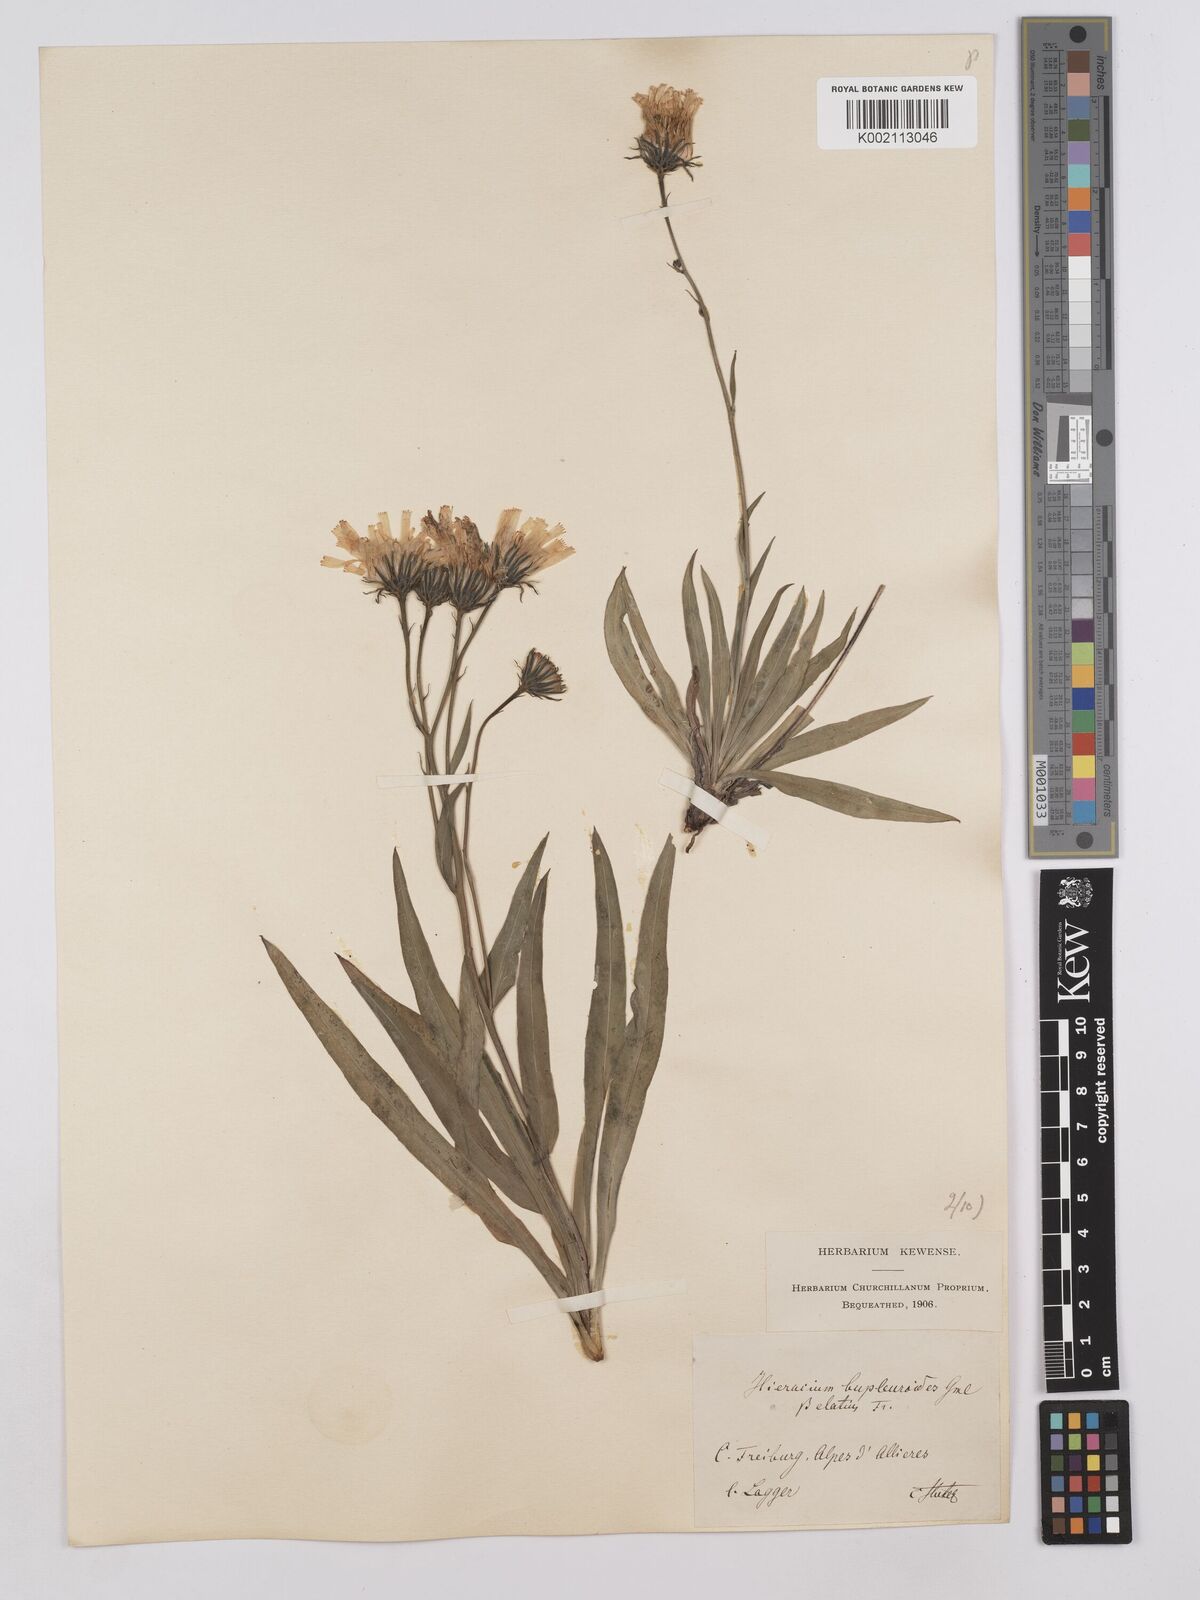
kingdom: Plantae
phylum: Tracheophyta
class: Magnoliopsida
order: Asterales
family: Asteraceae
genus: Hieracium
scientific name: Hieracium bupleuroides
